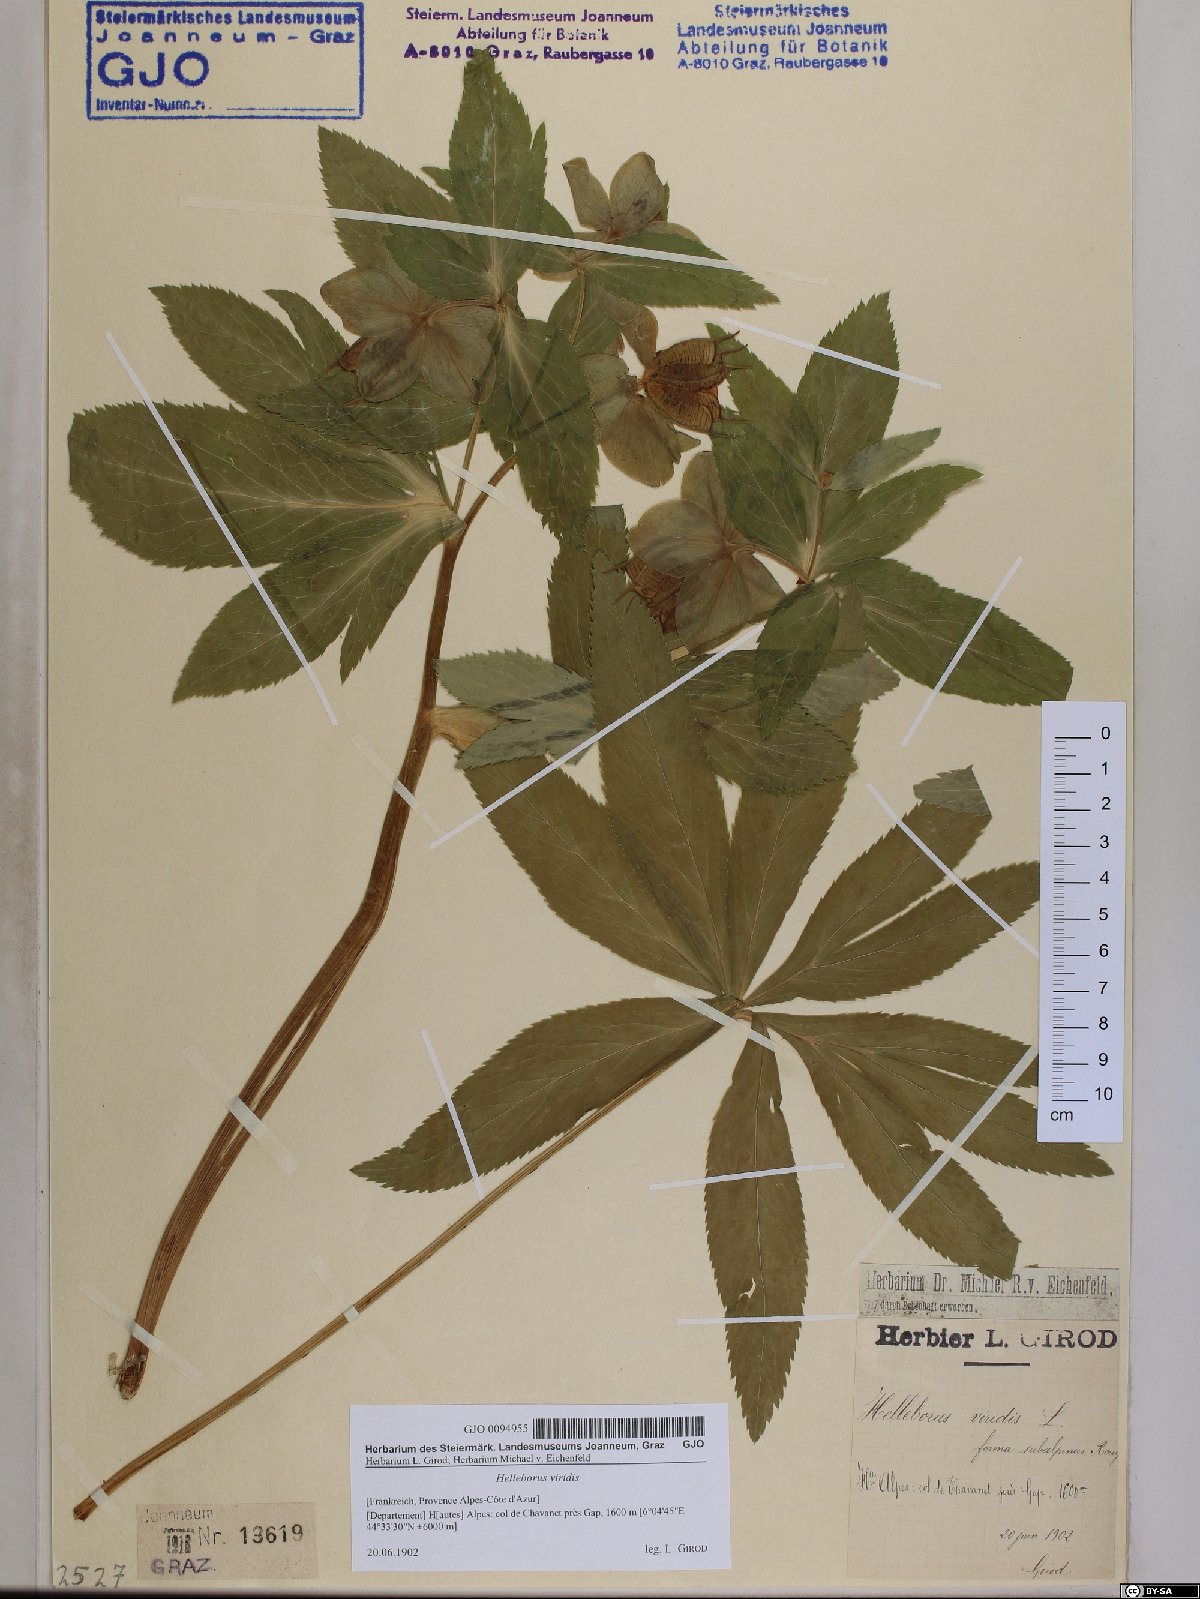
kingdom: Plantae
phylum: Tracheophyta
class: Magnoliopsida
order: Ranunculales
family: Ranunculaceae
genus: Helleborus
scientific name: Helleborus viridis
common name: Green hellebore
